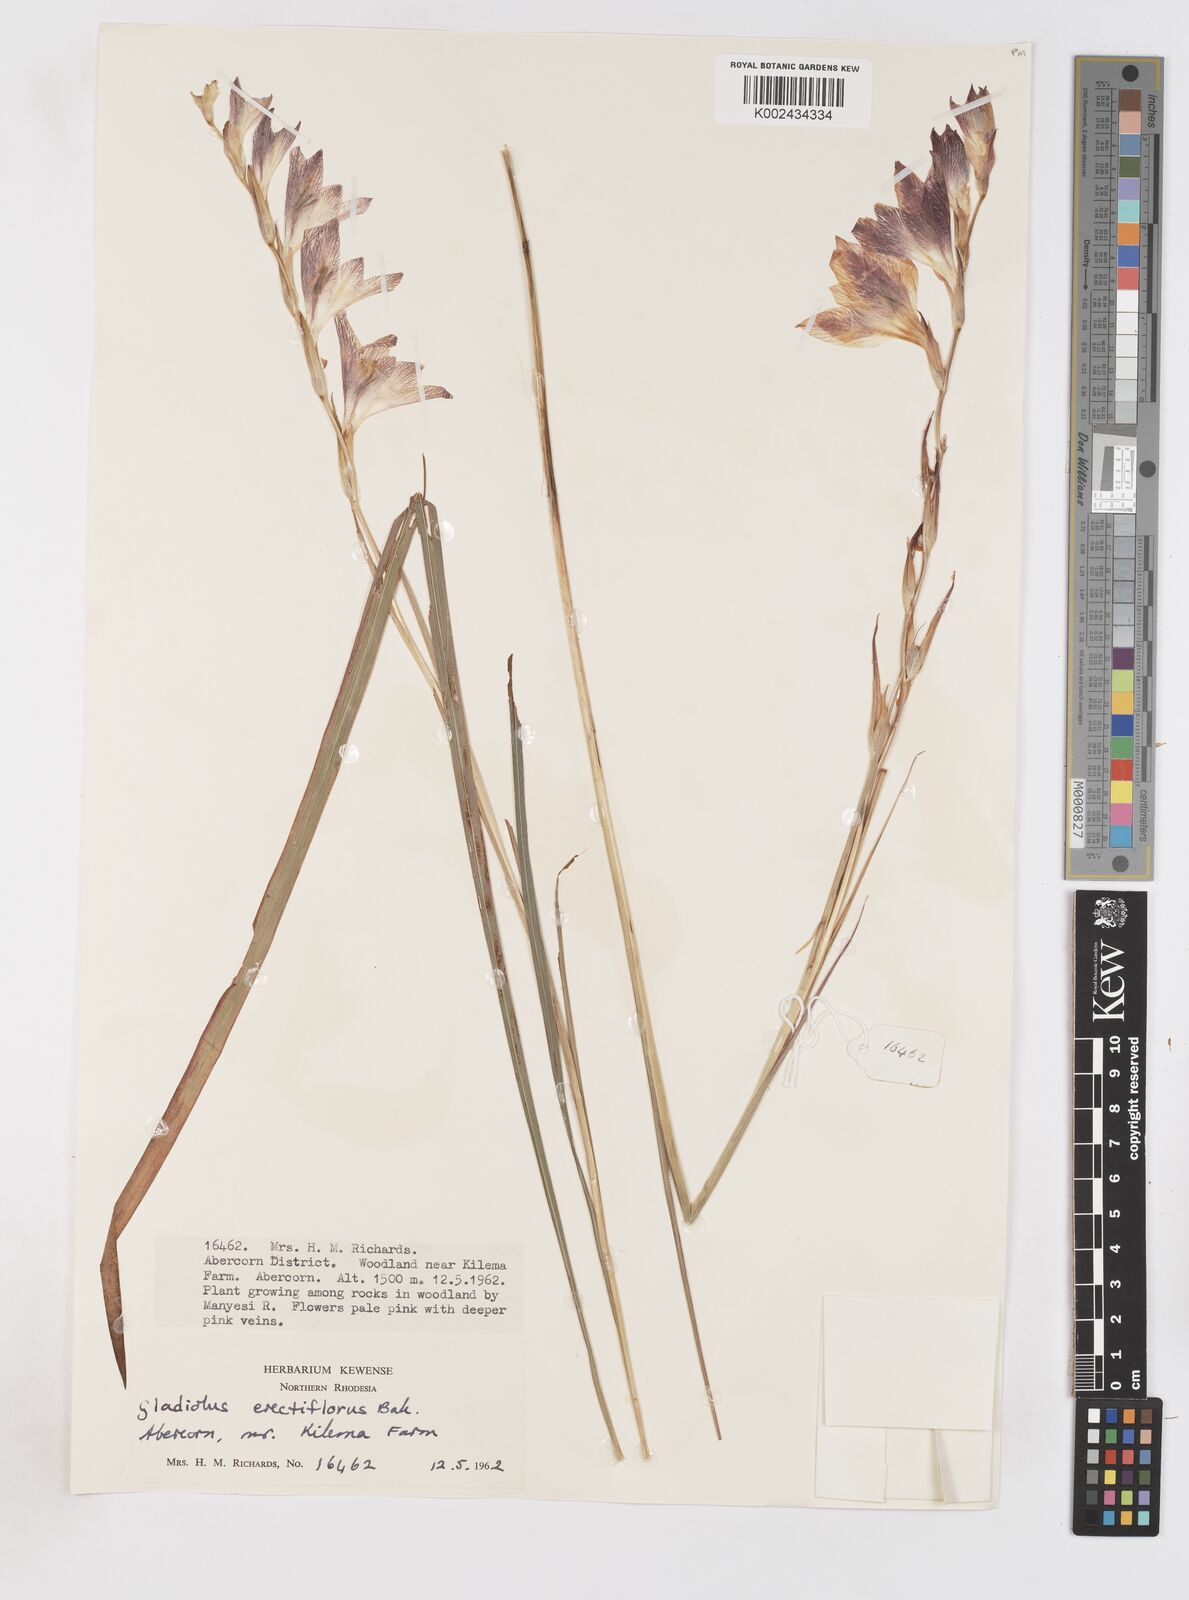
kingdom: Plantae
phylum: Tracheophyta
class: Liliopsida
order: Asparagales
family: Iridaceae
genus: Gladiolus
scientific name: Gladiolus erectiflorus
